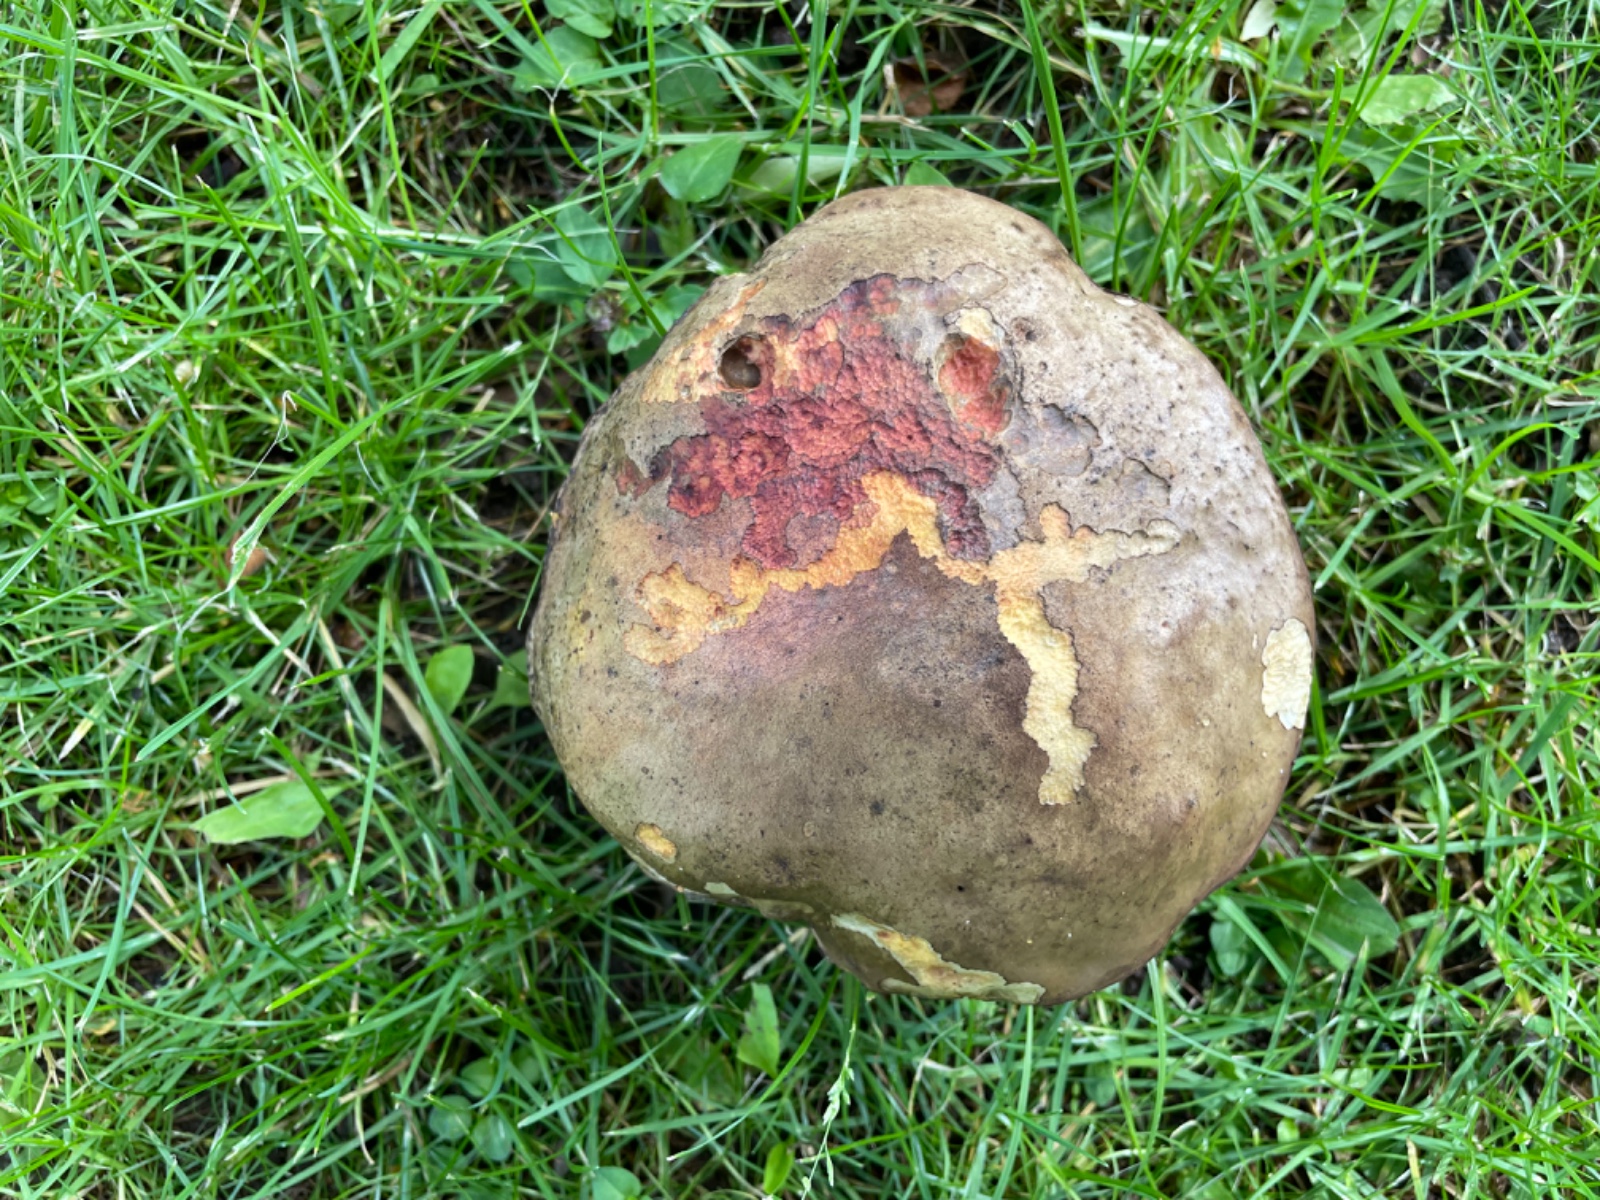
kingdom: Fungi
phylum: Basidiomycota
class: Agaricomycetes
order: Boletales
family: Boletaceae
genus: Suillellus
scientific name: Suillellus luridus
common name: netstokket indigorørhat
